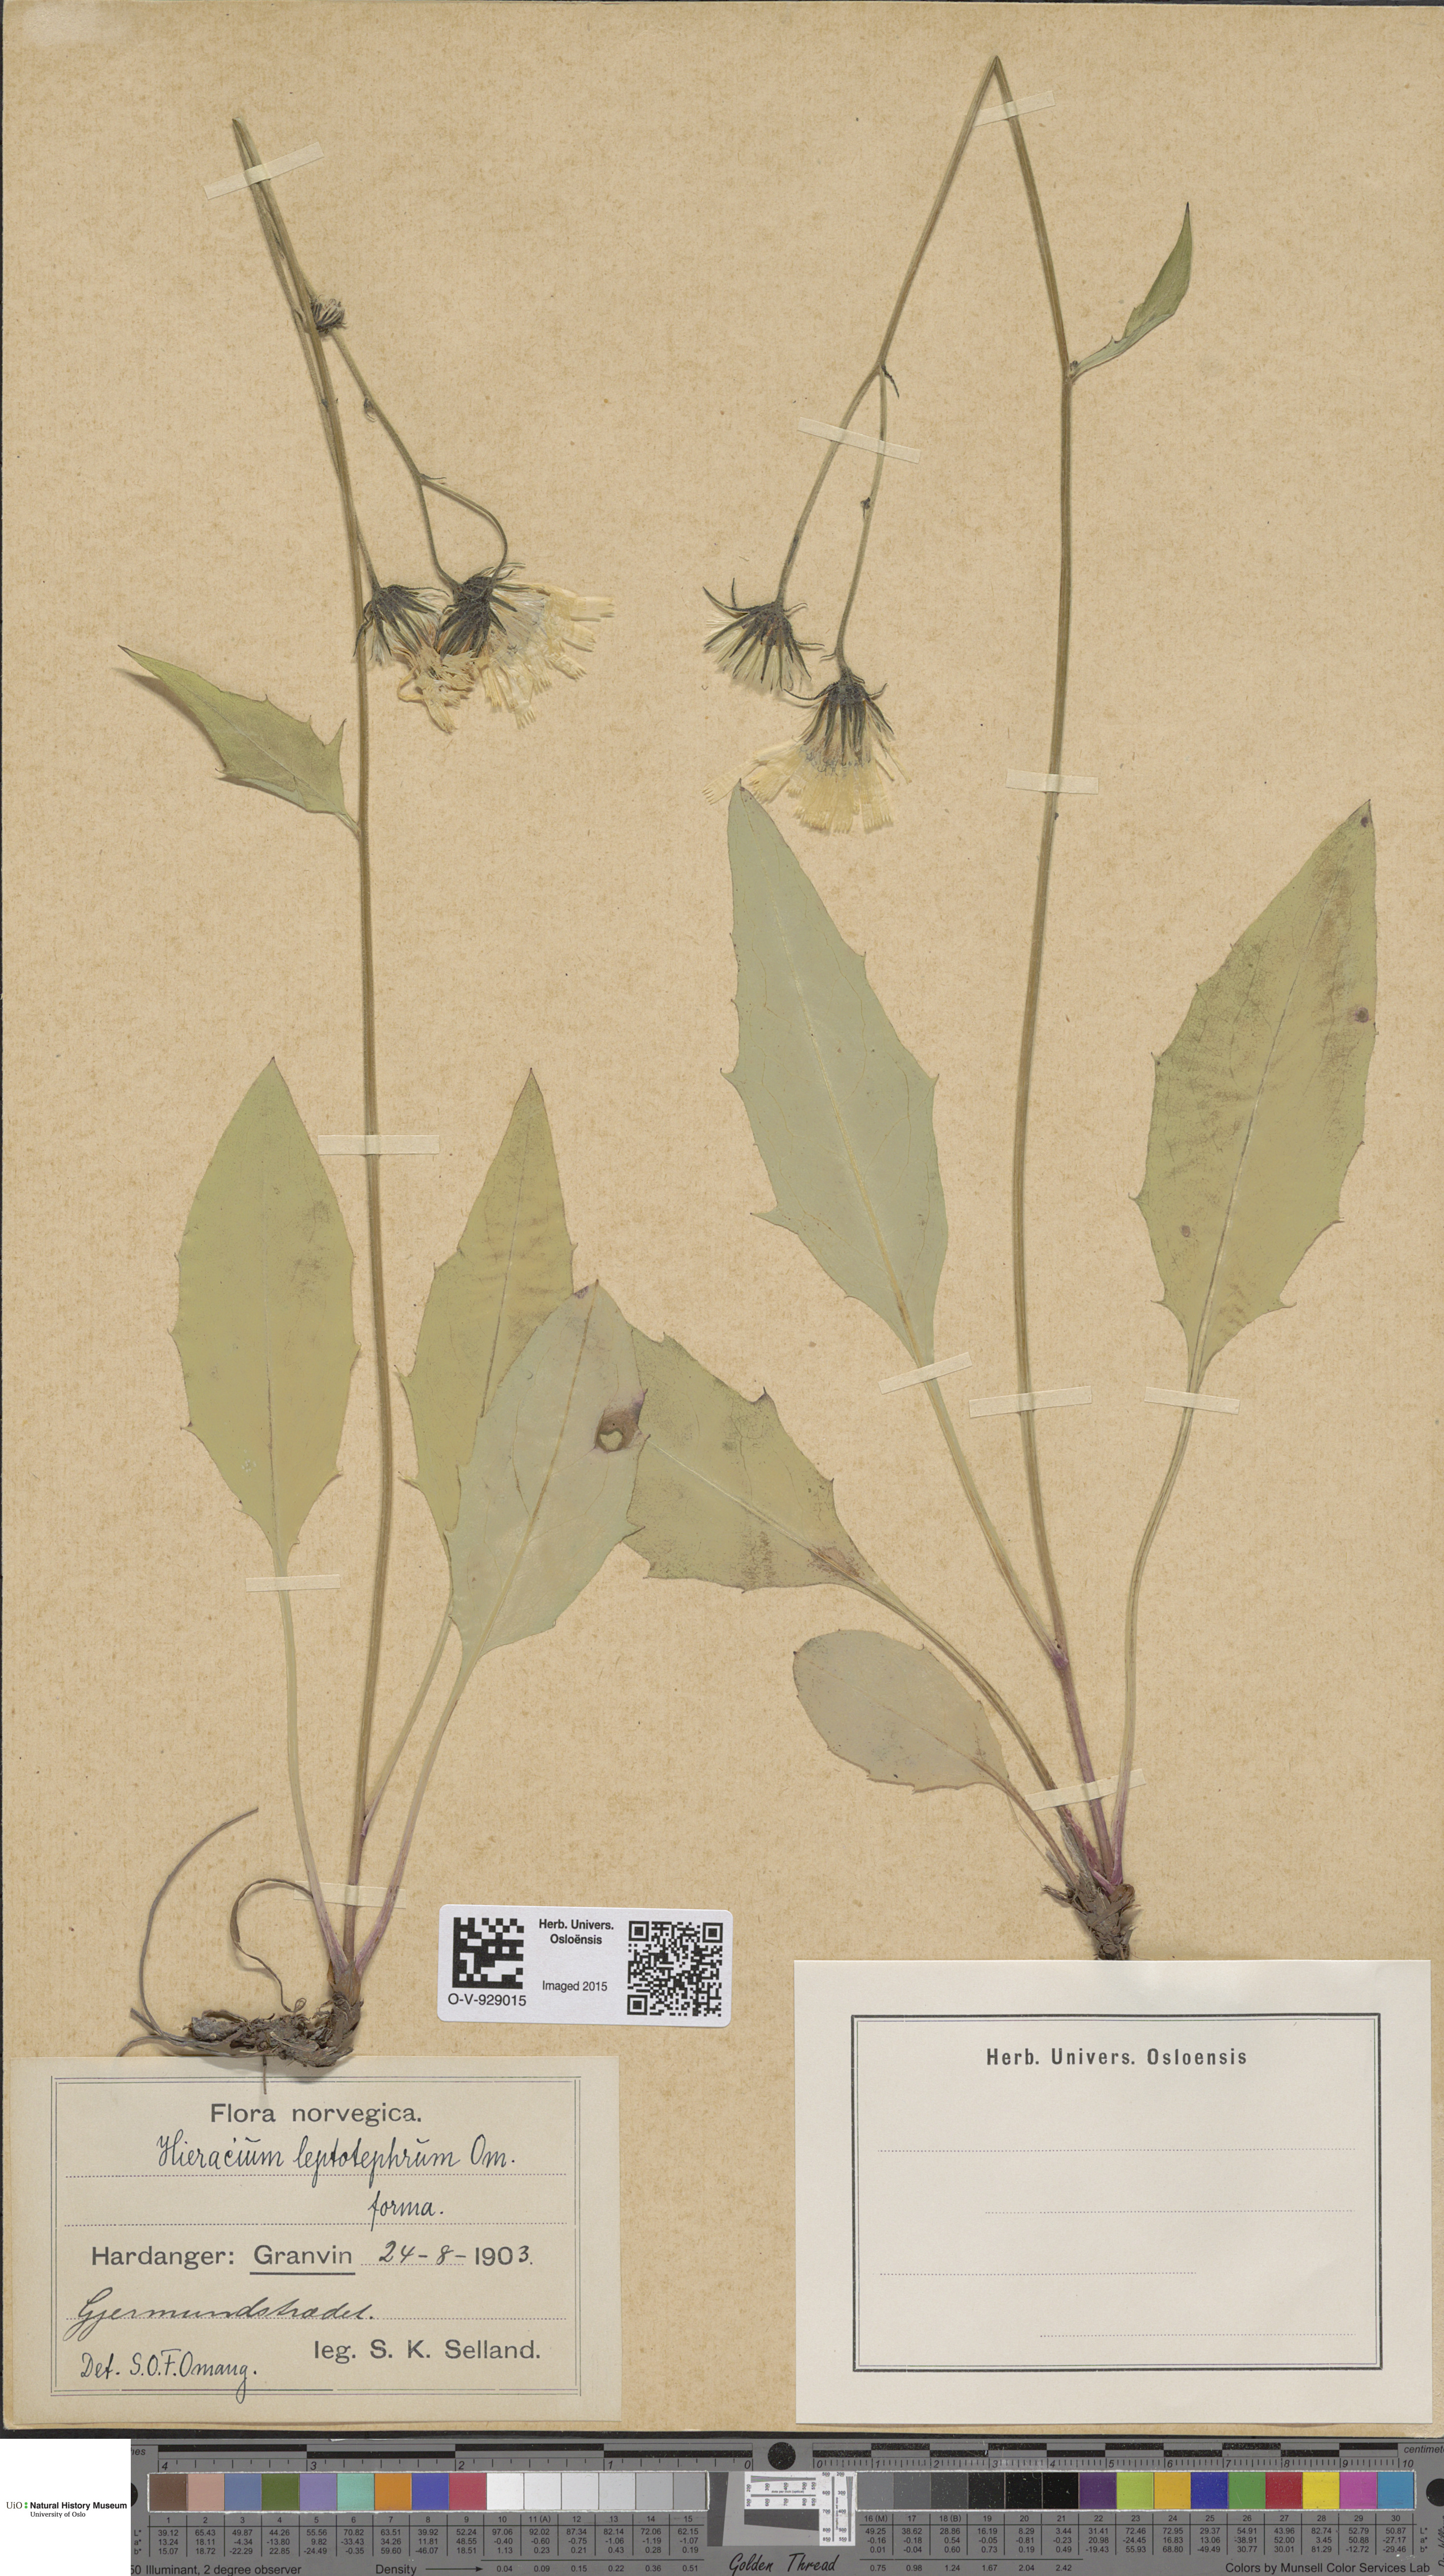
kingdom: Plantae
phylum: Tracheophyta
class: Magnoliopsida
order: Asterales
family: Asteraceae
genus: Hieracium
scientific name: Hieracium
